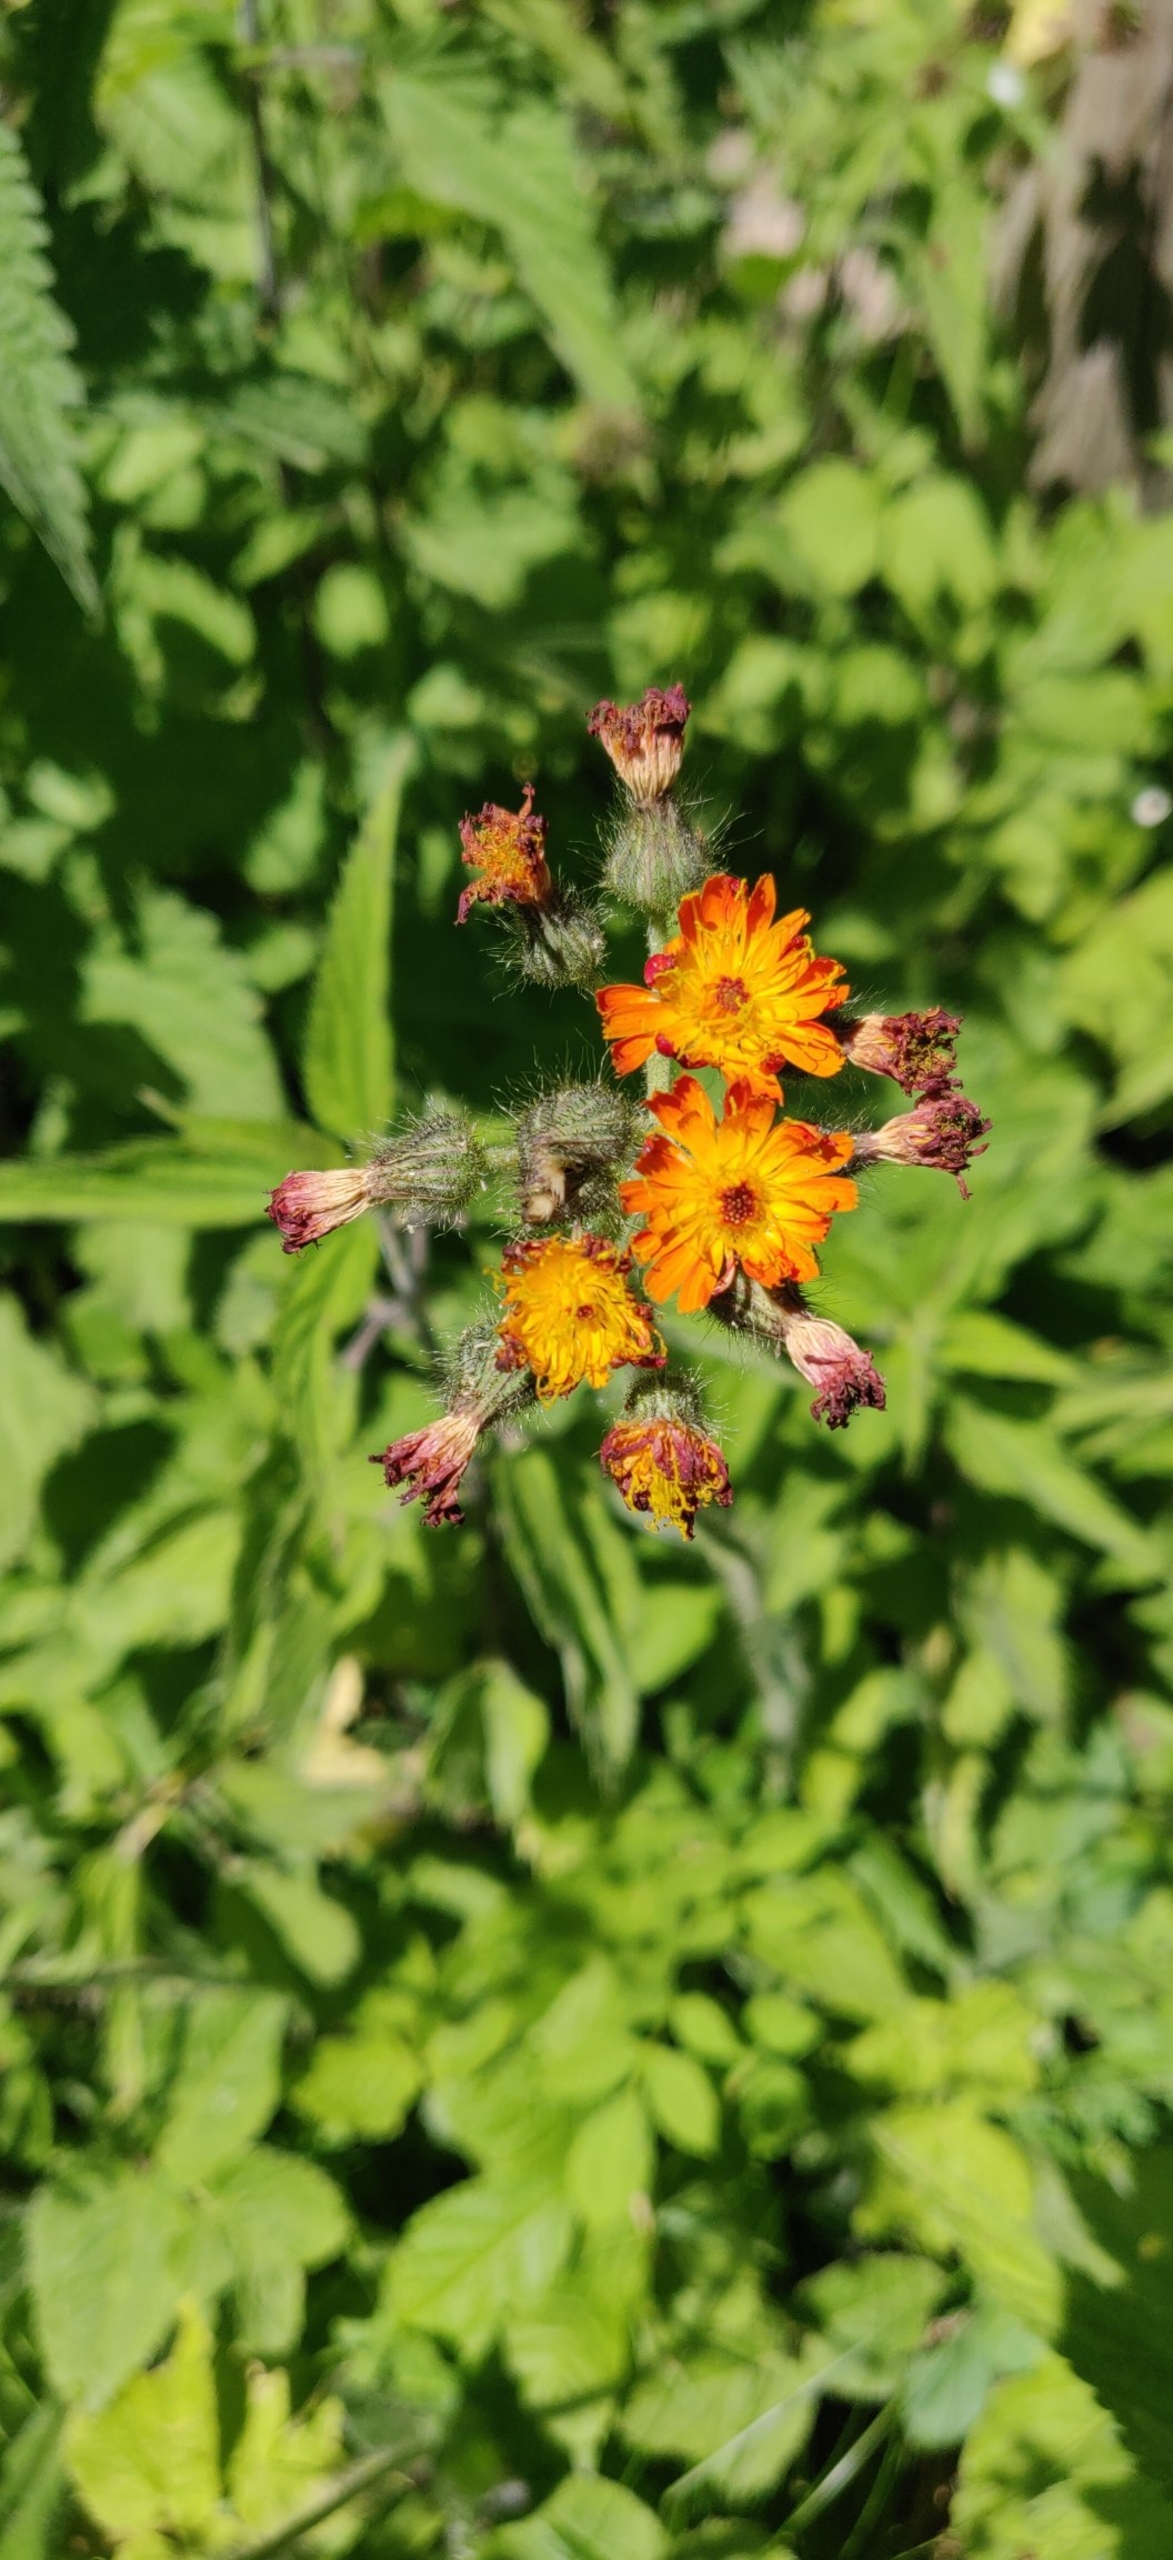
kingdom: Plantae
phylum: Tracheophyta
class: Magnoliopsida
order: Asterales
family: Asteraceae
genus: Pilosella
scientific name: Pilosella aurantiaca
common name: Pomerans-høgeurt
